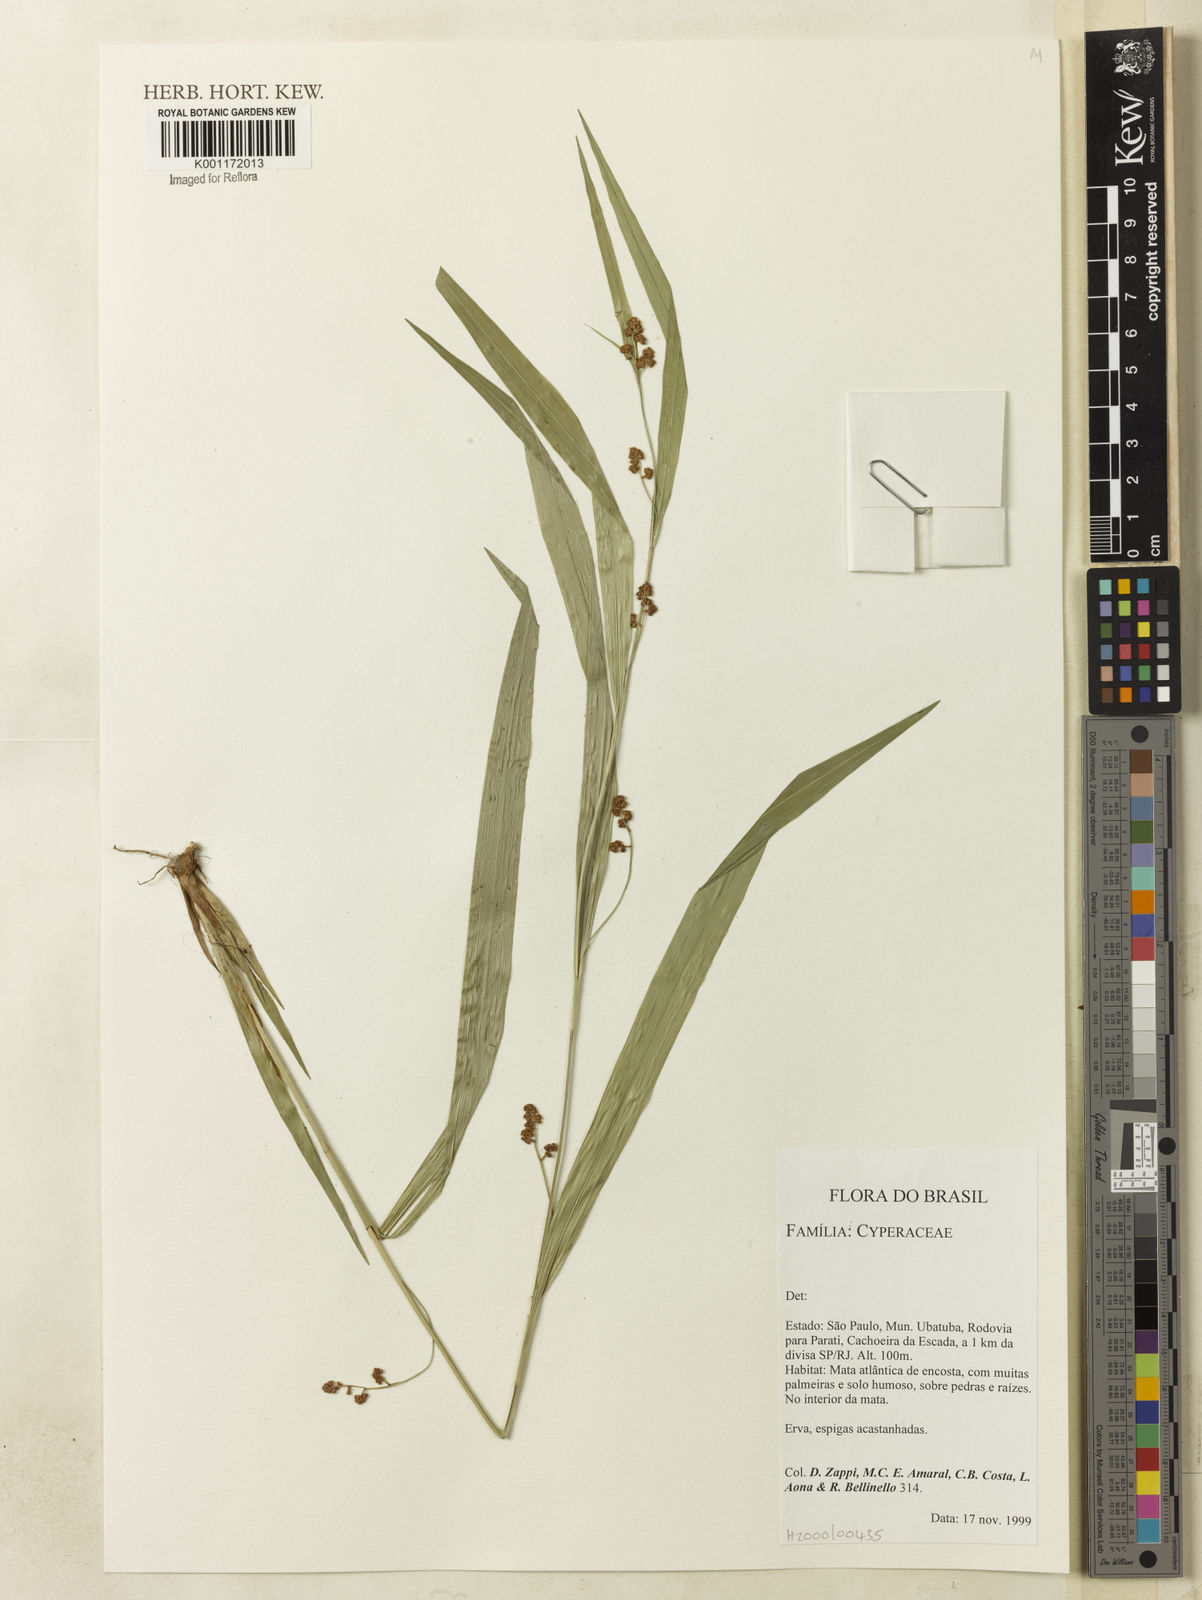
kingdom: Plantae
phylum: Tracheophyta
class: Liliopsida
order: Poales
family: Cyperaceae
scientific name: Cyperaceae
